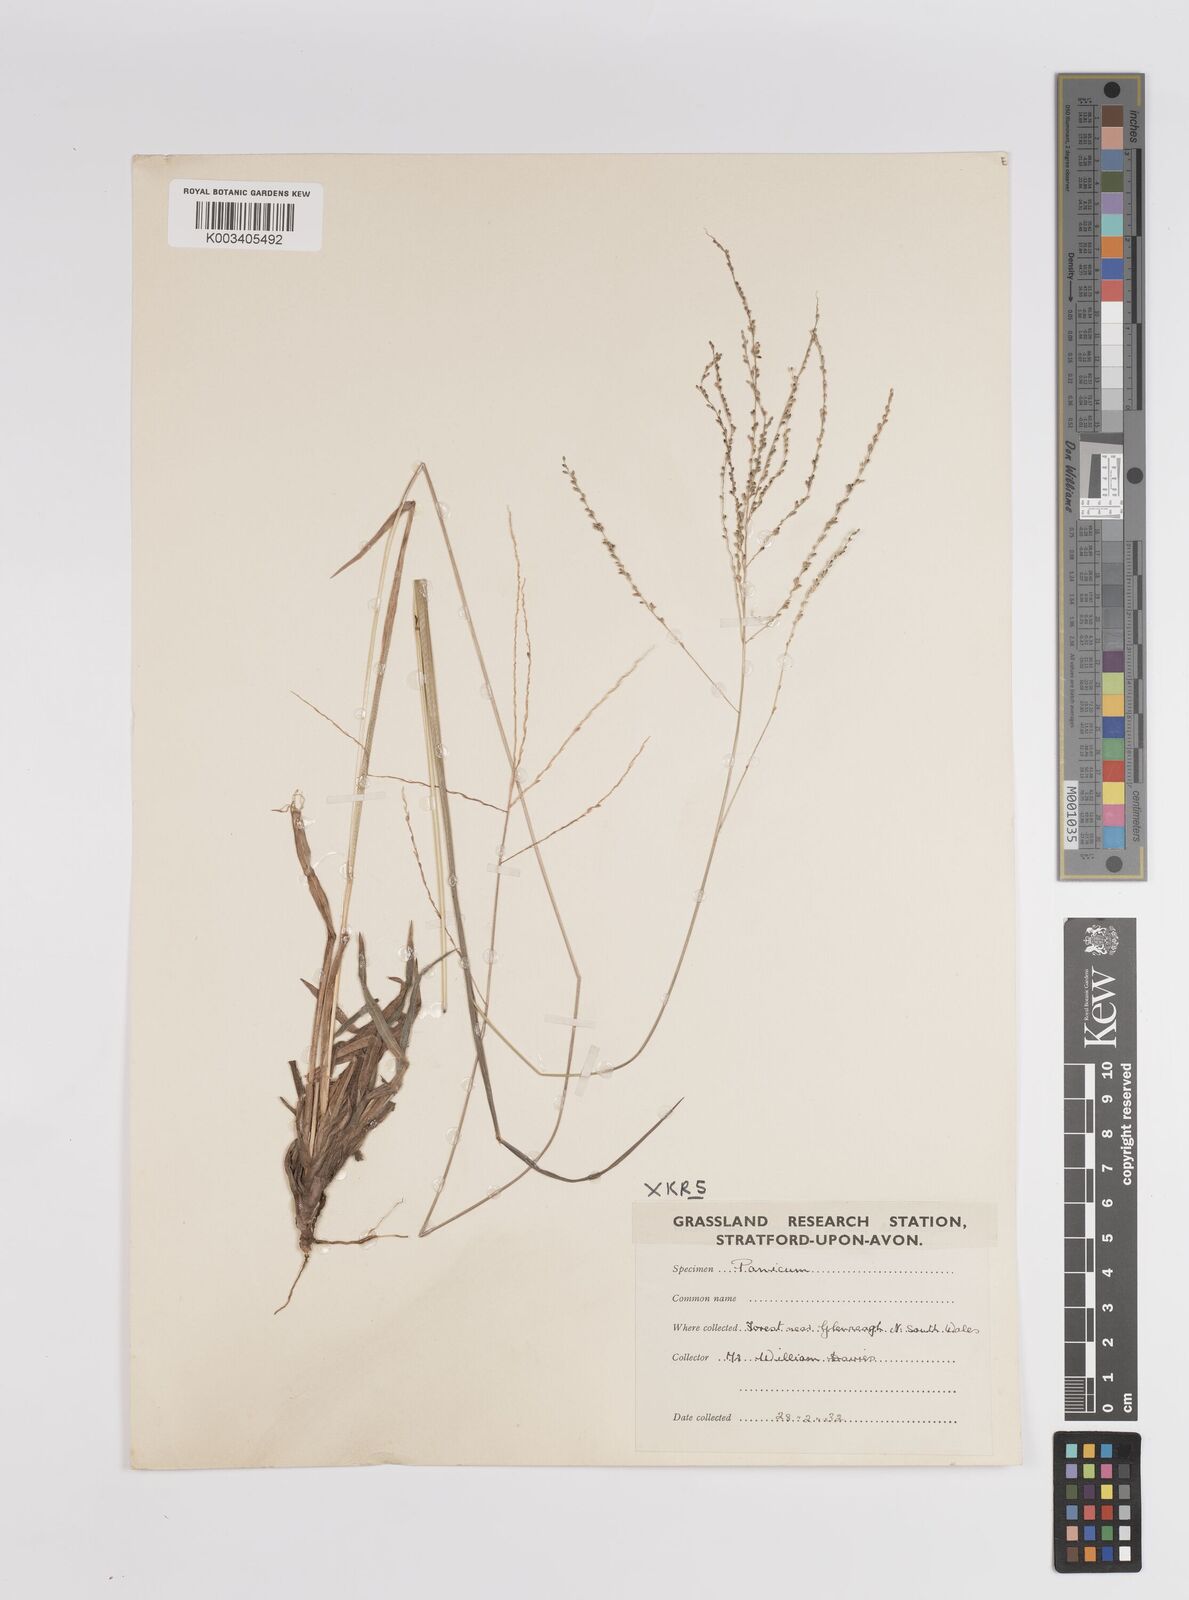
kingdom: Plantae
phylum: Tracheophyta
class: Liliopsida
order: Poales
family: Poaceae
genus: Panicum
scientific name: Panicum
